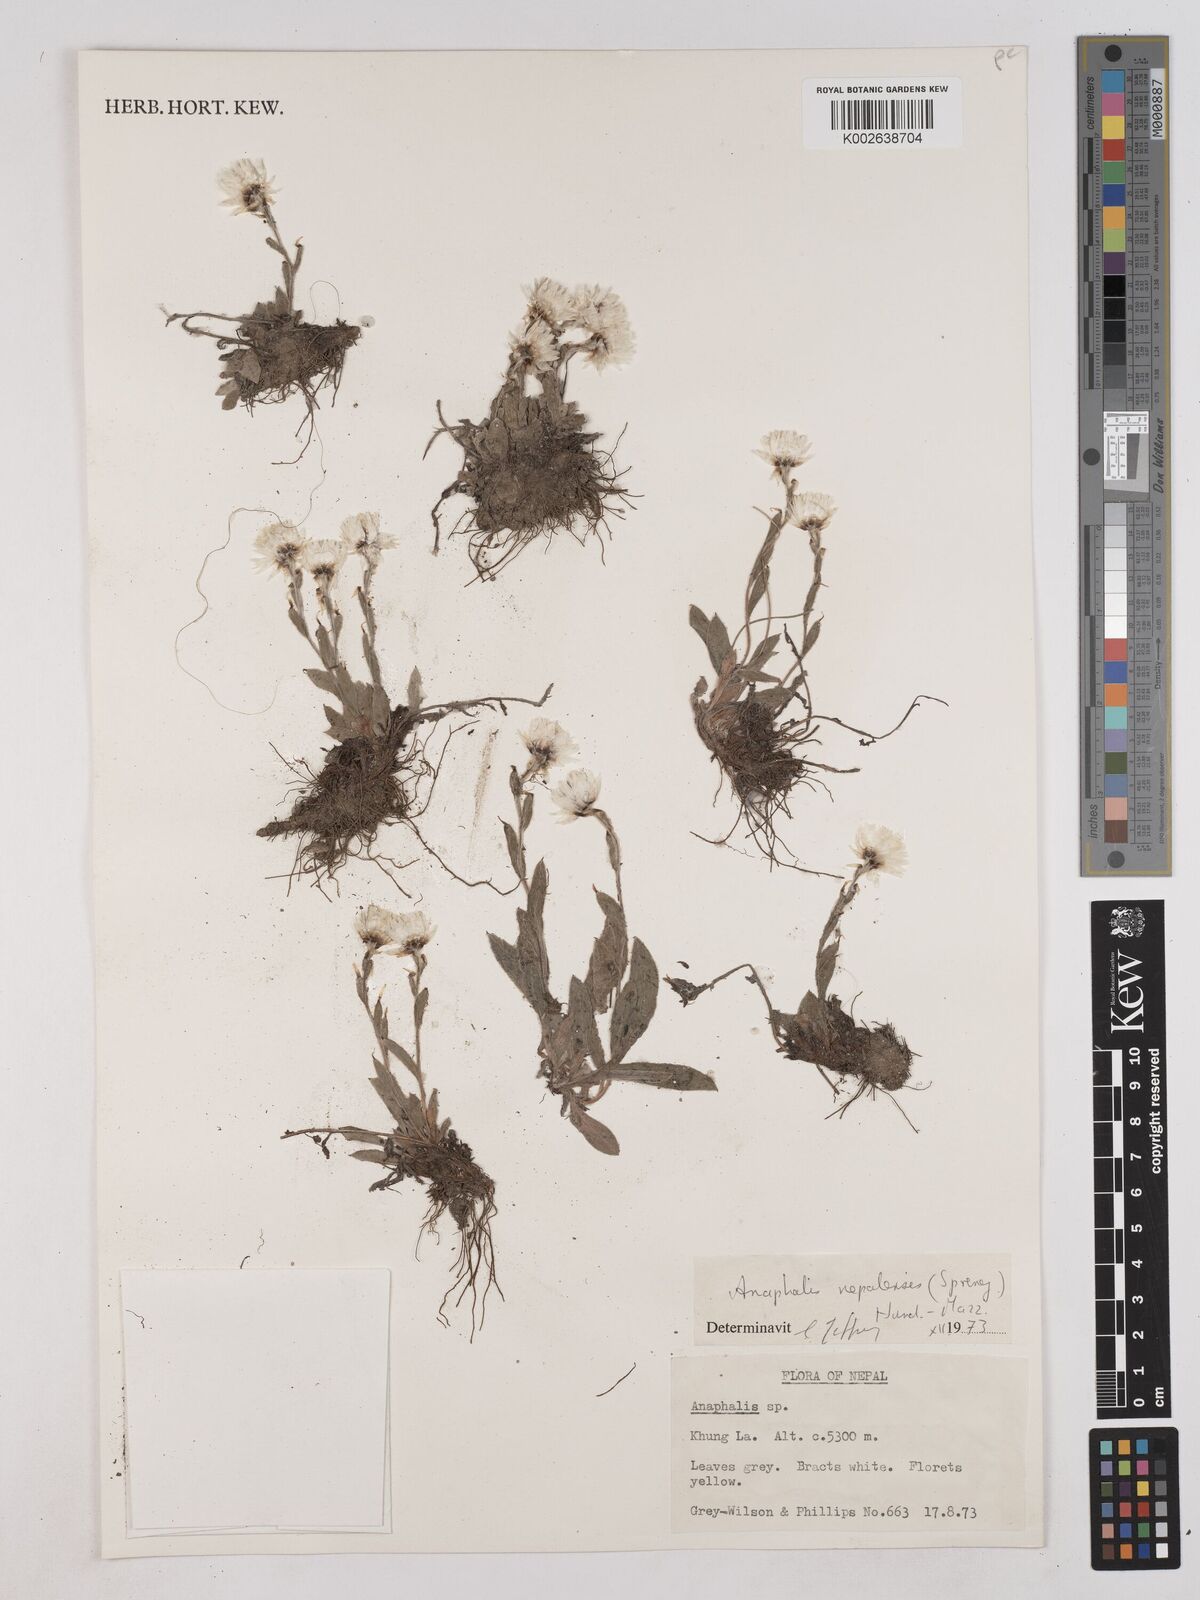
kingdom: Plantae
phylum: Tracheophyta
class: Magnoliopsida
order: Asterales
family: Asteraceae
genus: Anaphalis
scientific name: Anaphalis
